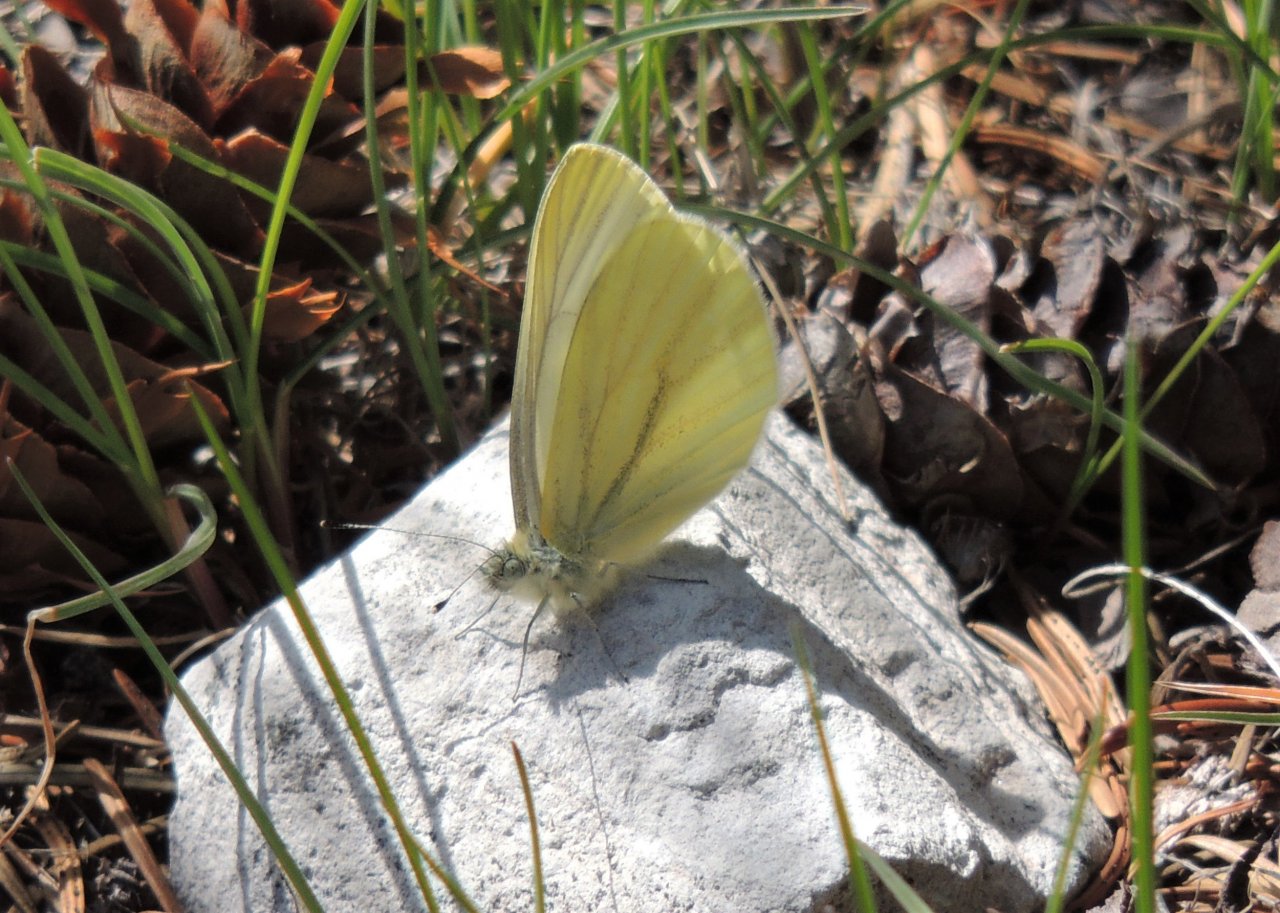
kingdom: Animalia
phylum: Arthropoda
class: Insecta
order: Lepidoptera
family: Pieridae
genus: Pieris
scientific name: Pieris marginalis
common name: Margined White
